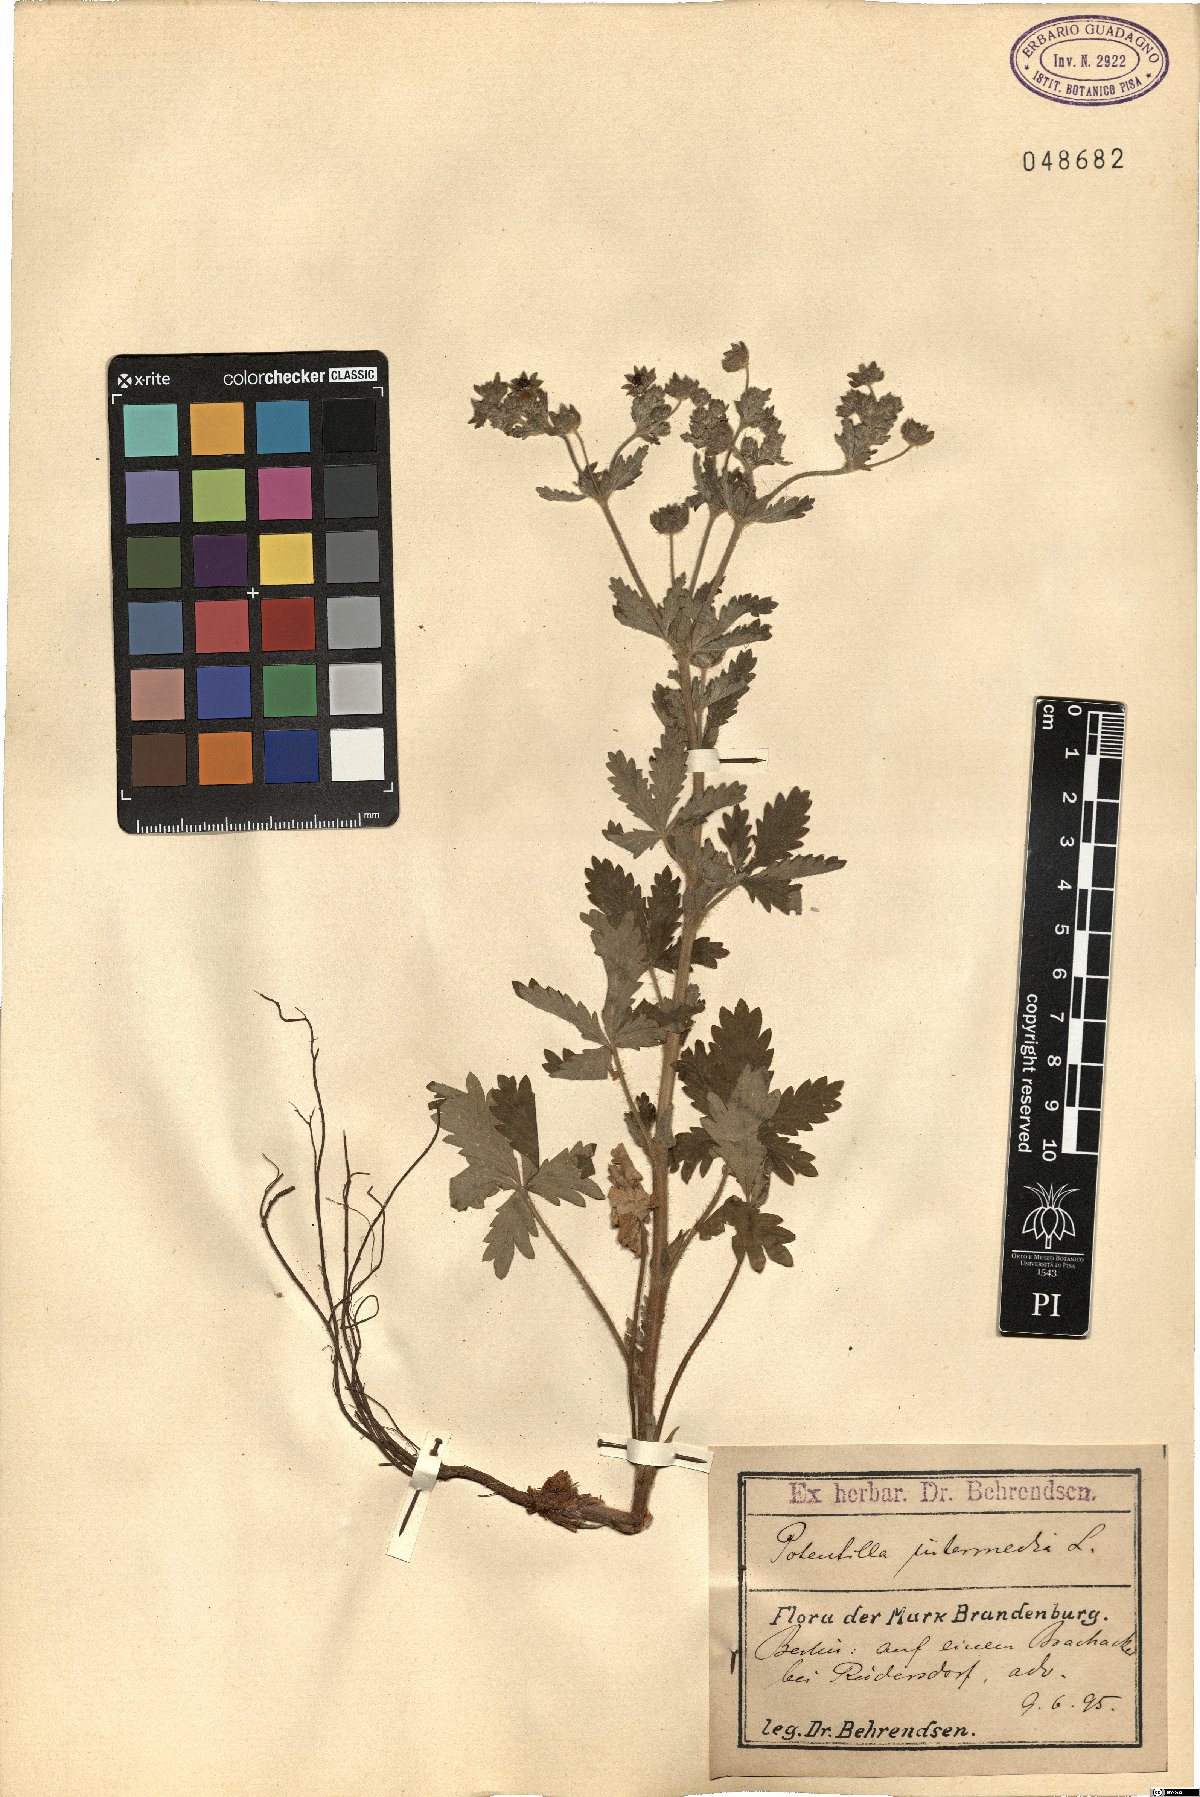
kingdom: Plantae
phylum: Tracheophyta
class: Magnoliopsida
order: Rosales
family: Rosaceae
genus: Potentilla
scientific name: Potentilla intermedia
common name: Downy cinquefoil
